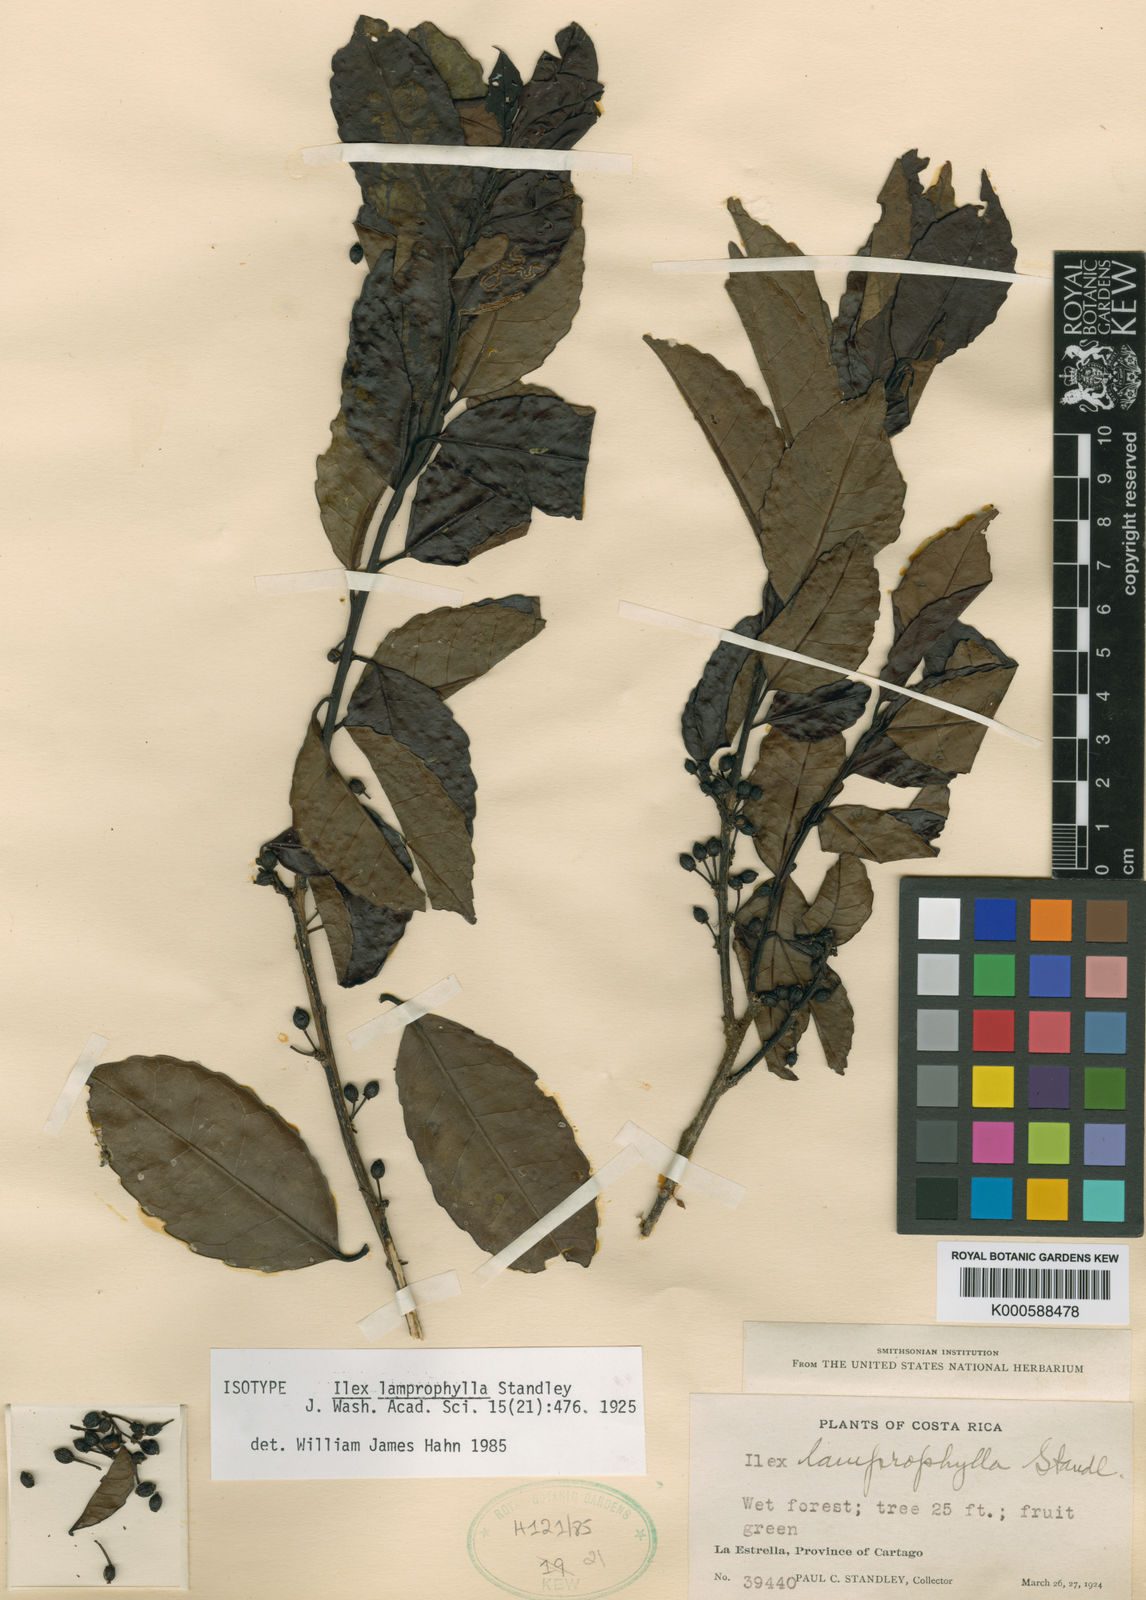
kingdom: Plantae
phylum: Tracheophyta
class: Magnoliopsida
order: Aquifoliales
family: Aquifoliaceae
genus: Ilex
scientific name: Ilex lamprophylla
